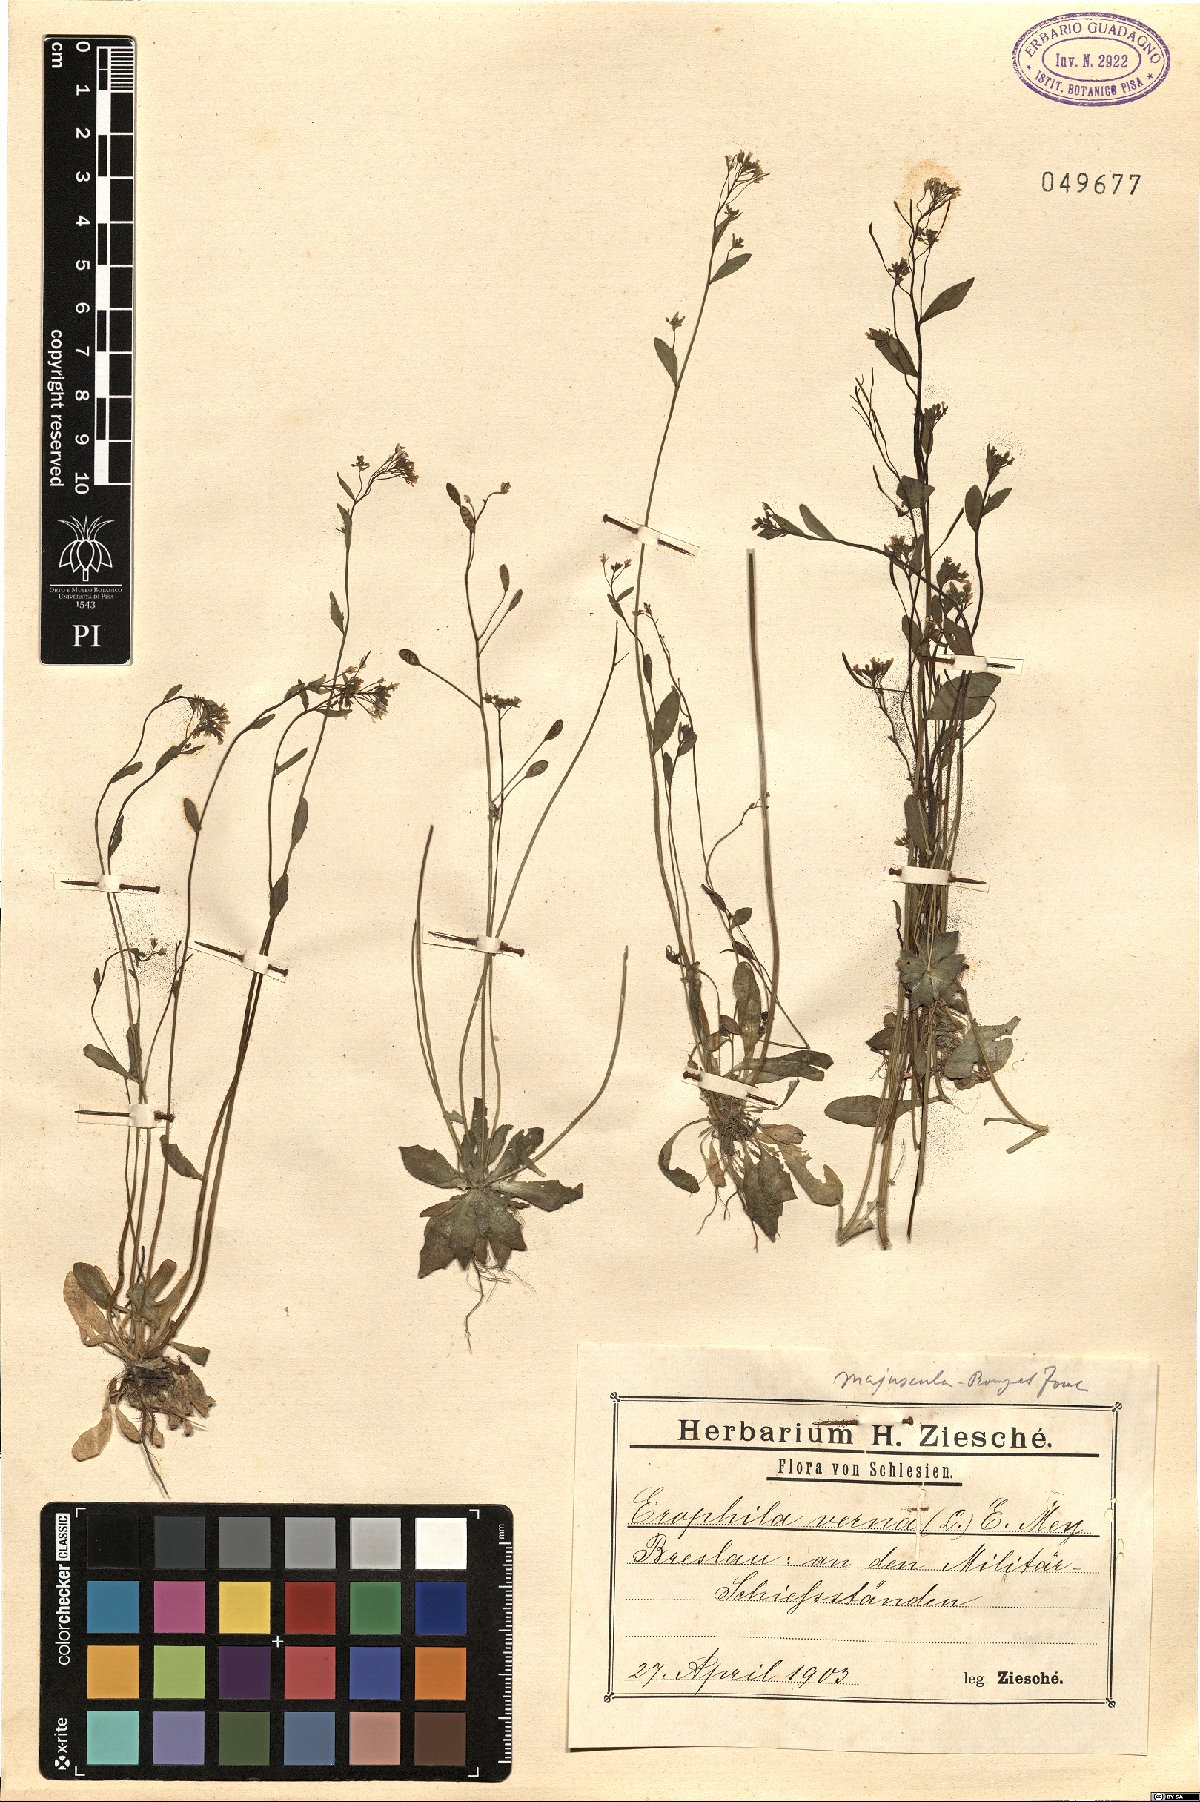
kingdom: Plantae
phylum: Tracheophyta
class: Magnoliopsida
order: Brassicales
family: Brassicaceae
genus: Draba
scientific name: Draba verna
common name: Spring draba
